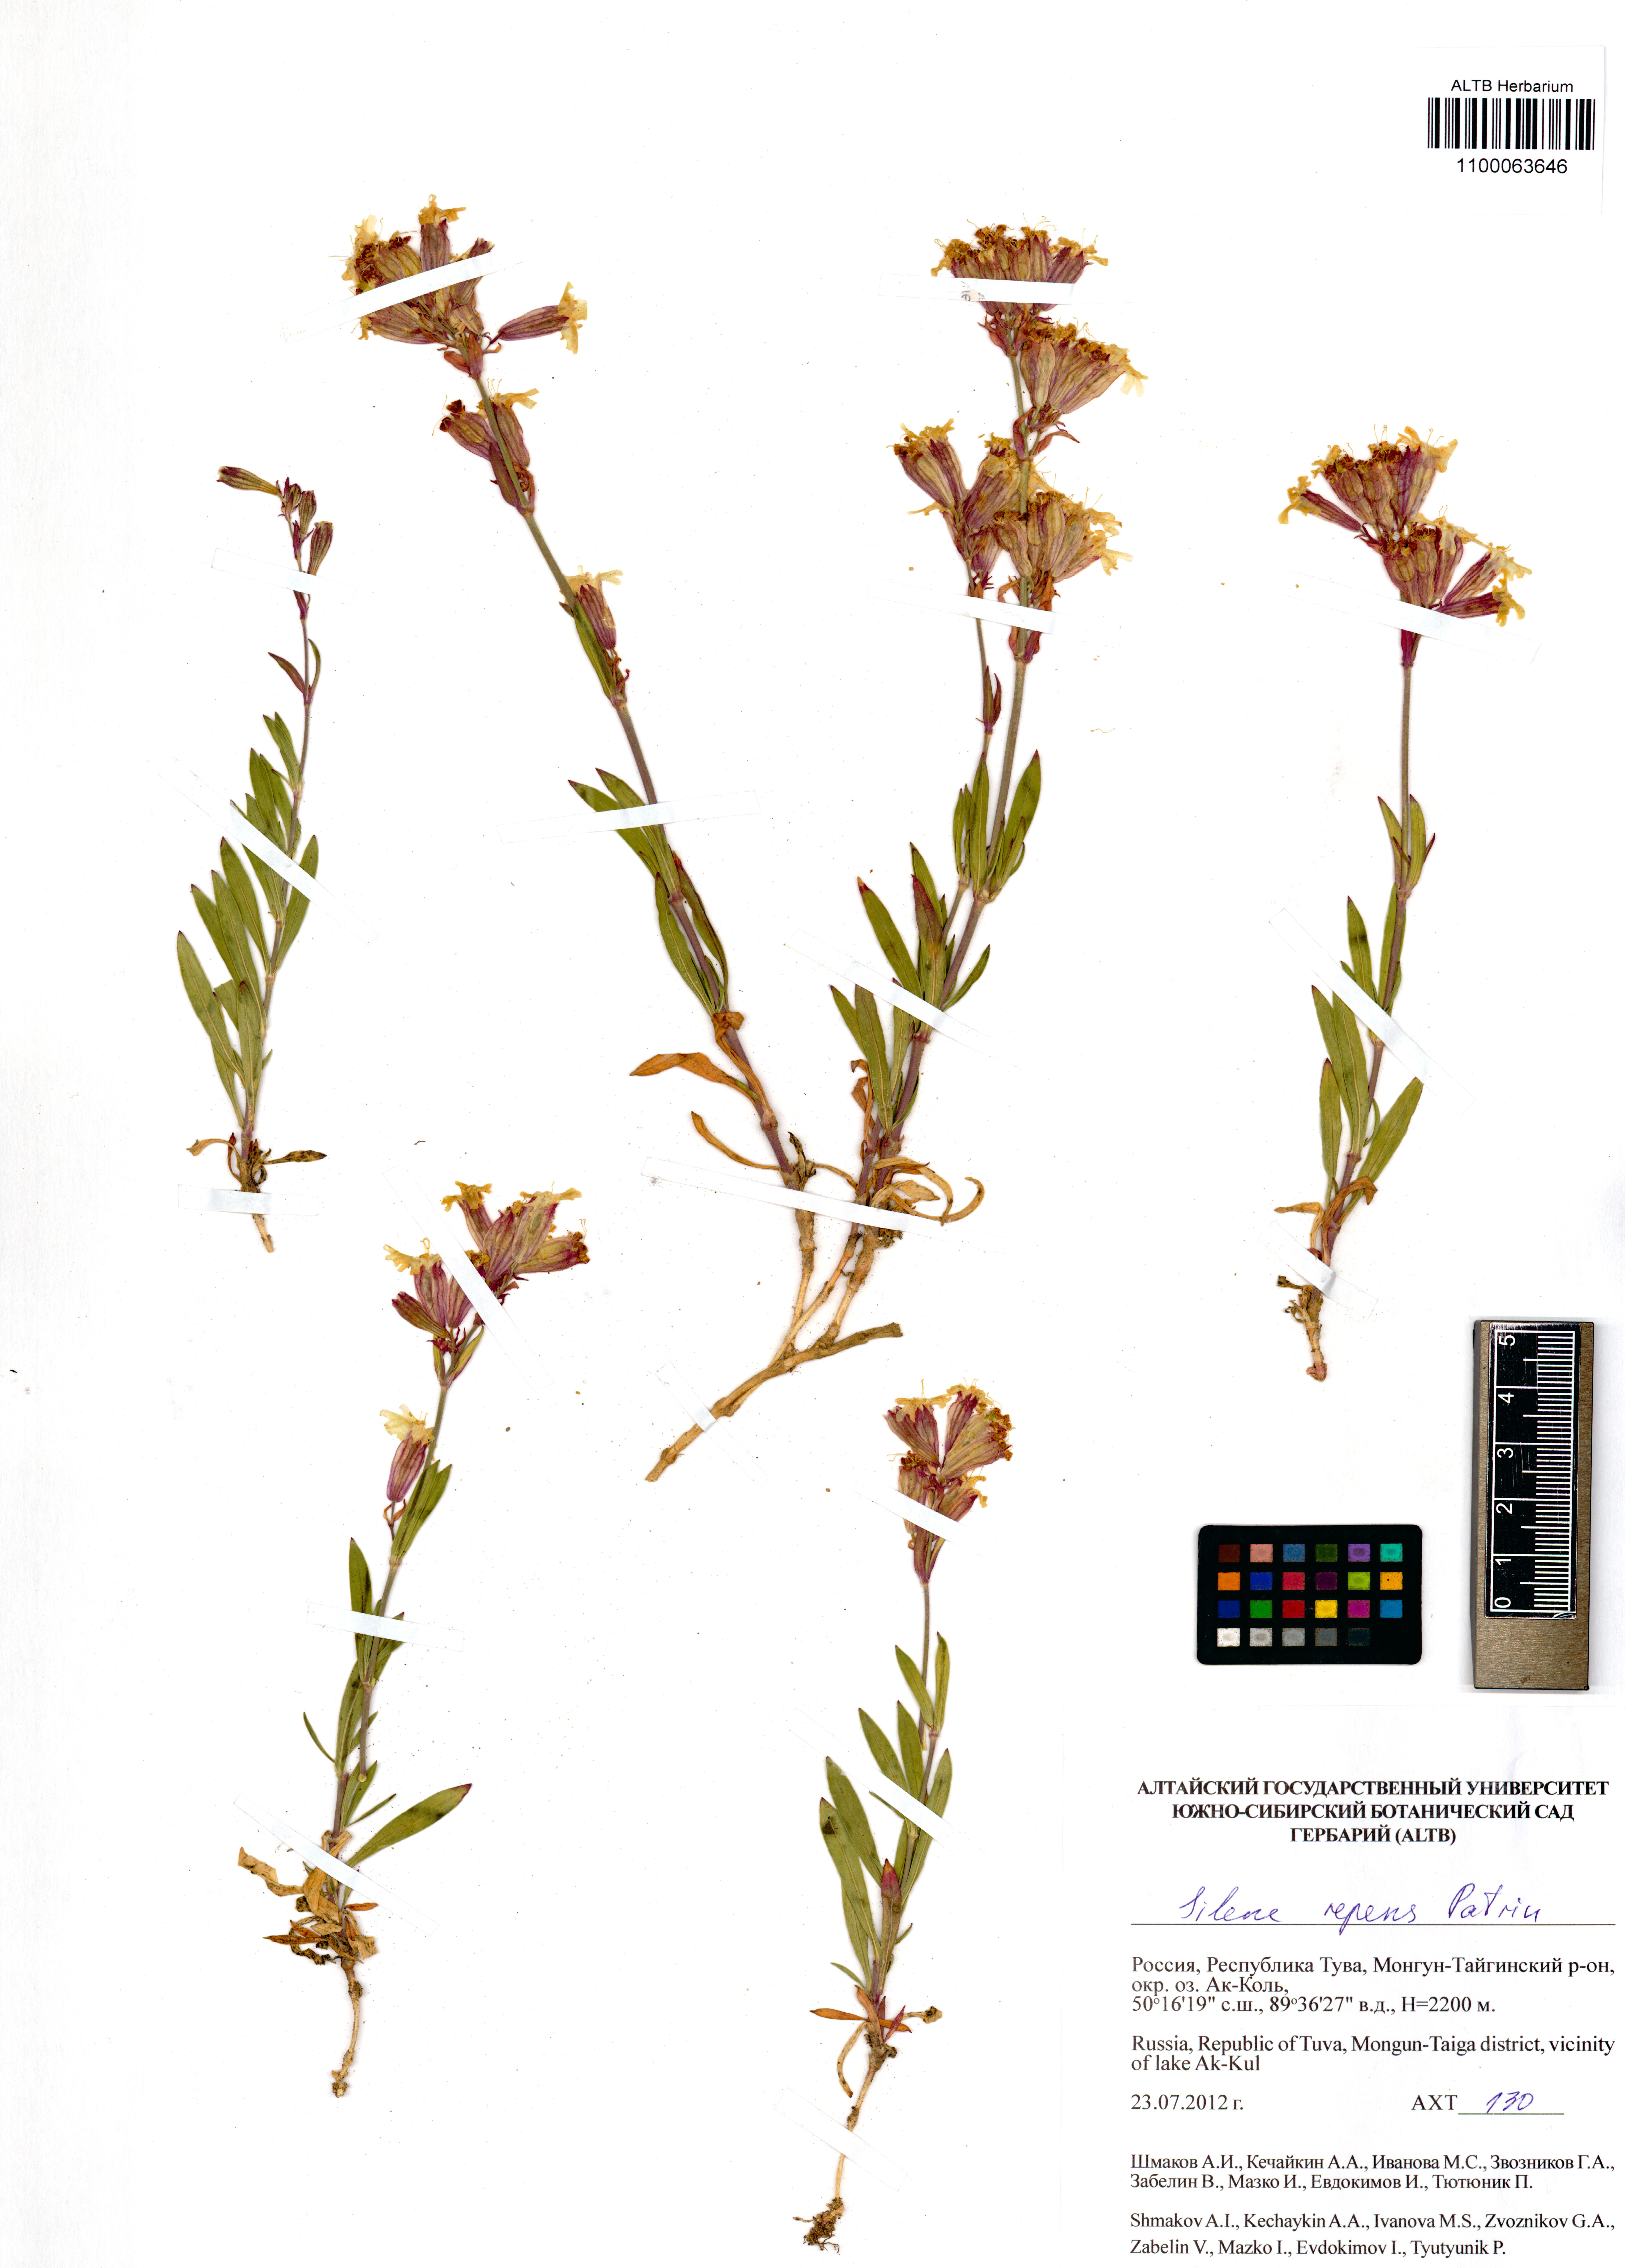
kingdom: Plantae
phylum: Tracheophyta
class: Magnoliopsida
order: Caryophyllales
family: Caryophyllaceae
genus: Silene
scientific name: Silene repens
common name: Pink campion
